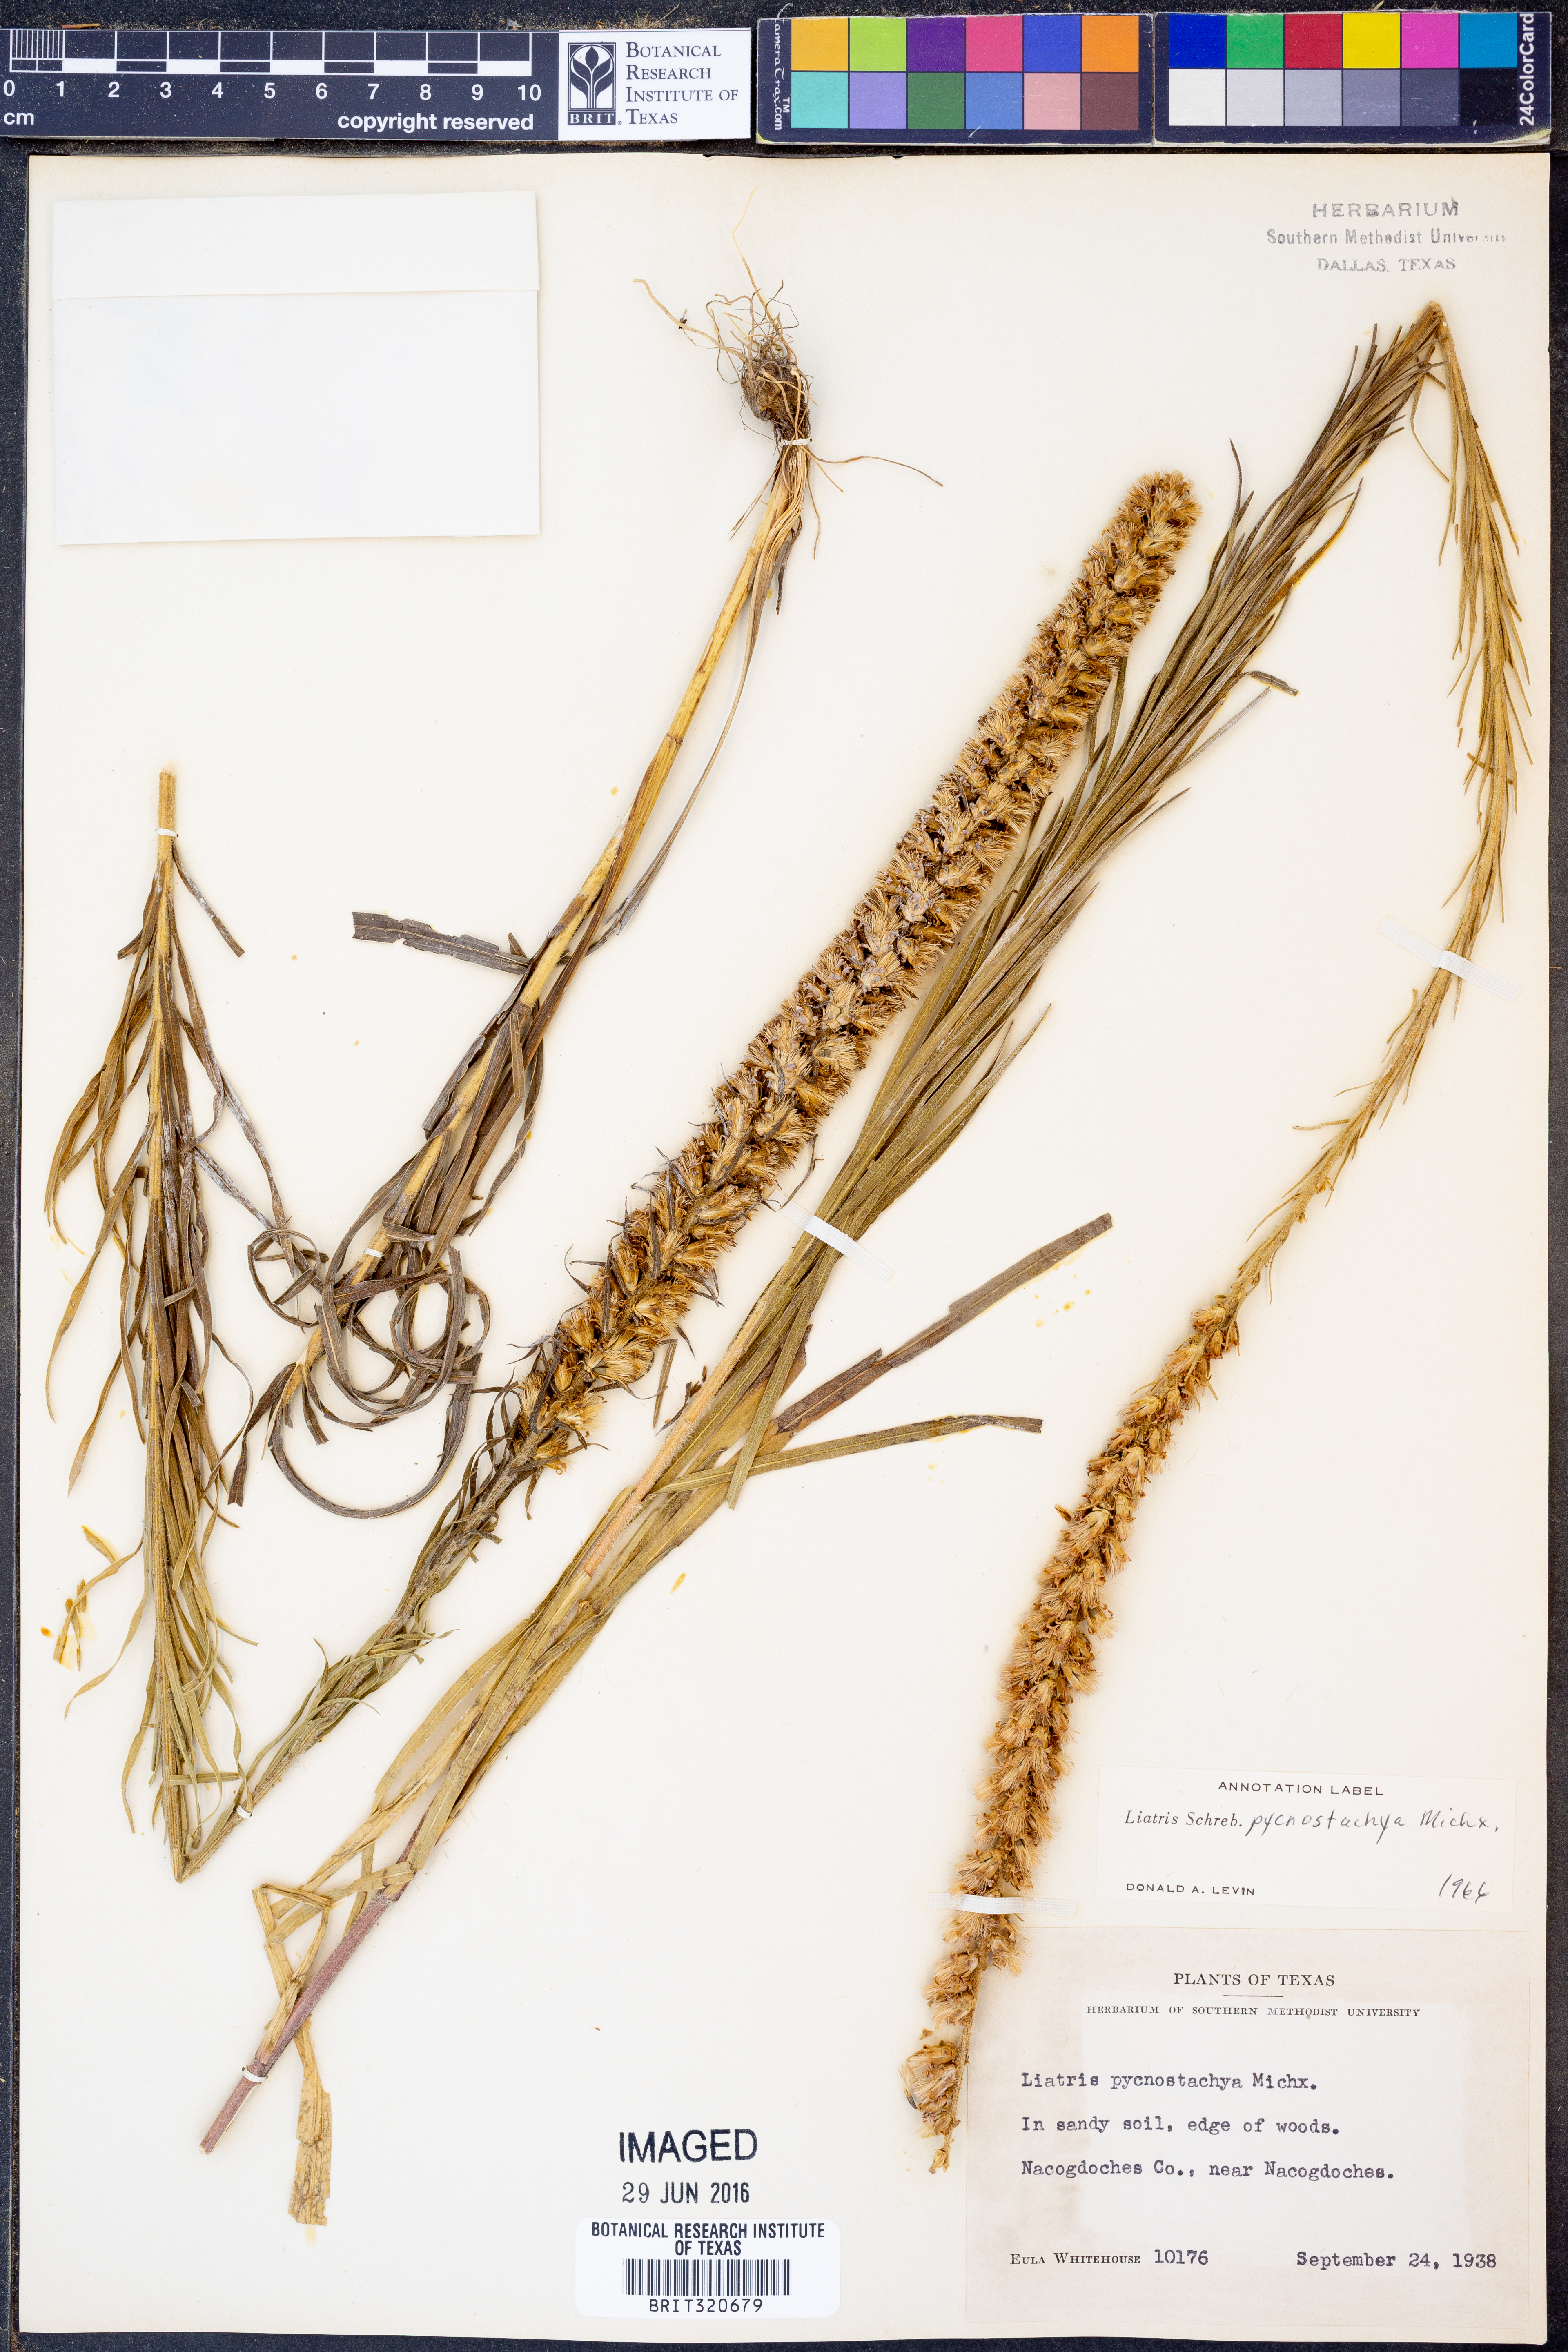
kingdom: Plantae
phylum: Tracheophyta
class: Magnoliopsida
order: Asterales
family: Asteraceae
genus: Liatris
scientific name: Liatris pycnostachya
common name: Cattail gayfeather
